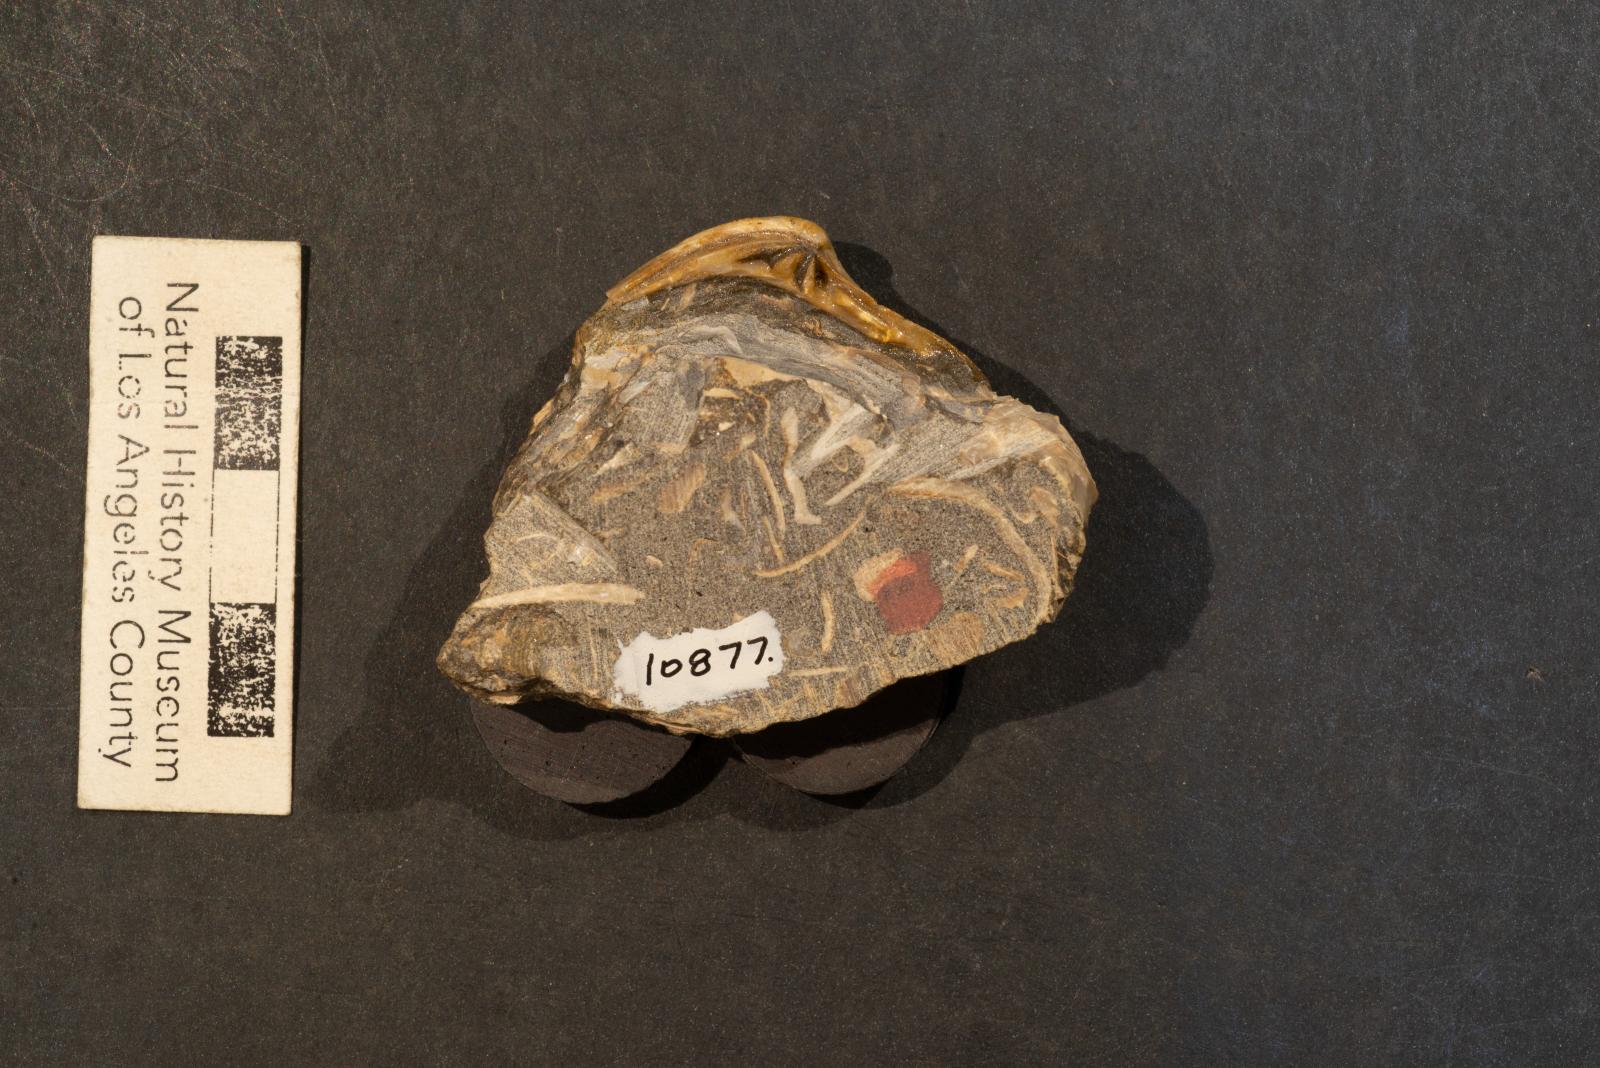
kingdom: Animalia
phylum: Mollusca
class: Bivalvia
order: Venerida
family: Veneridae
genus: Calva
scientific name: Calva Cucullaea bowersiana
